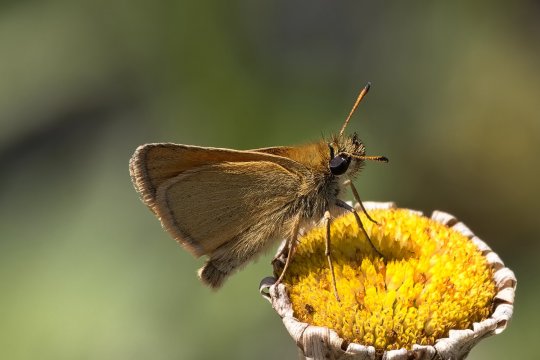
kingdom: Animalia
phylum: Arthropoda
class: Insecta
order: Lepidoptera
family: Hesperiidae
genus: Thymelicus
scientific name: Thymelicus lineola
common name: European Skipper
